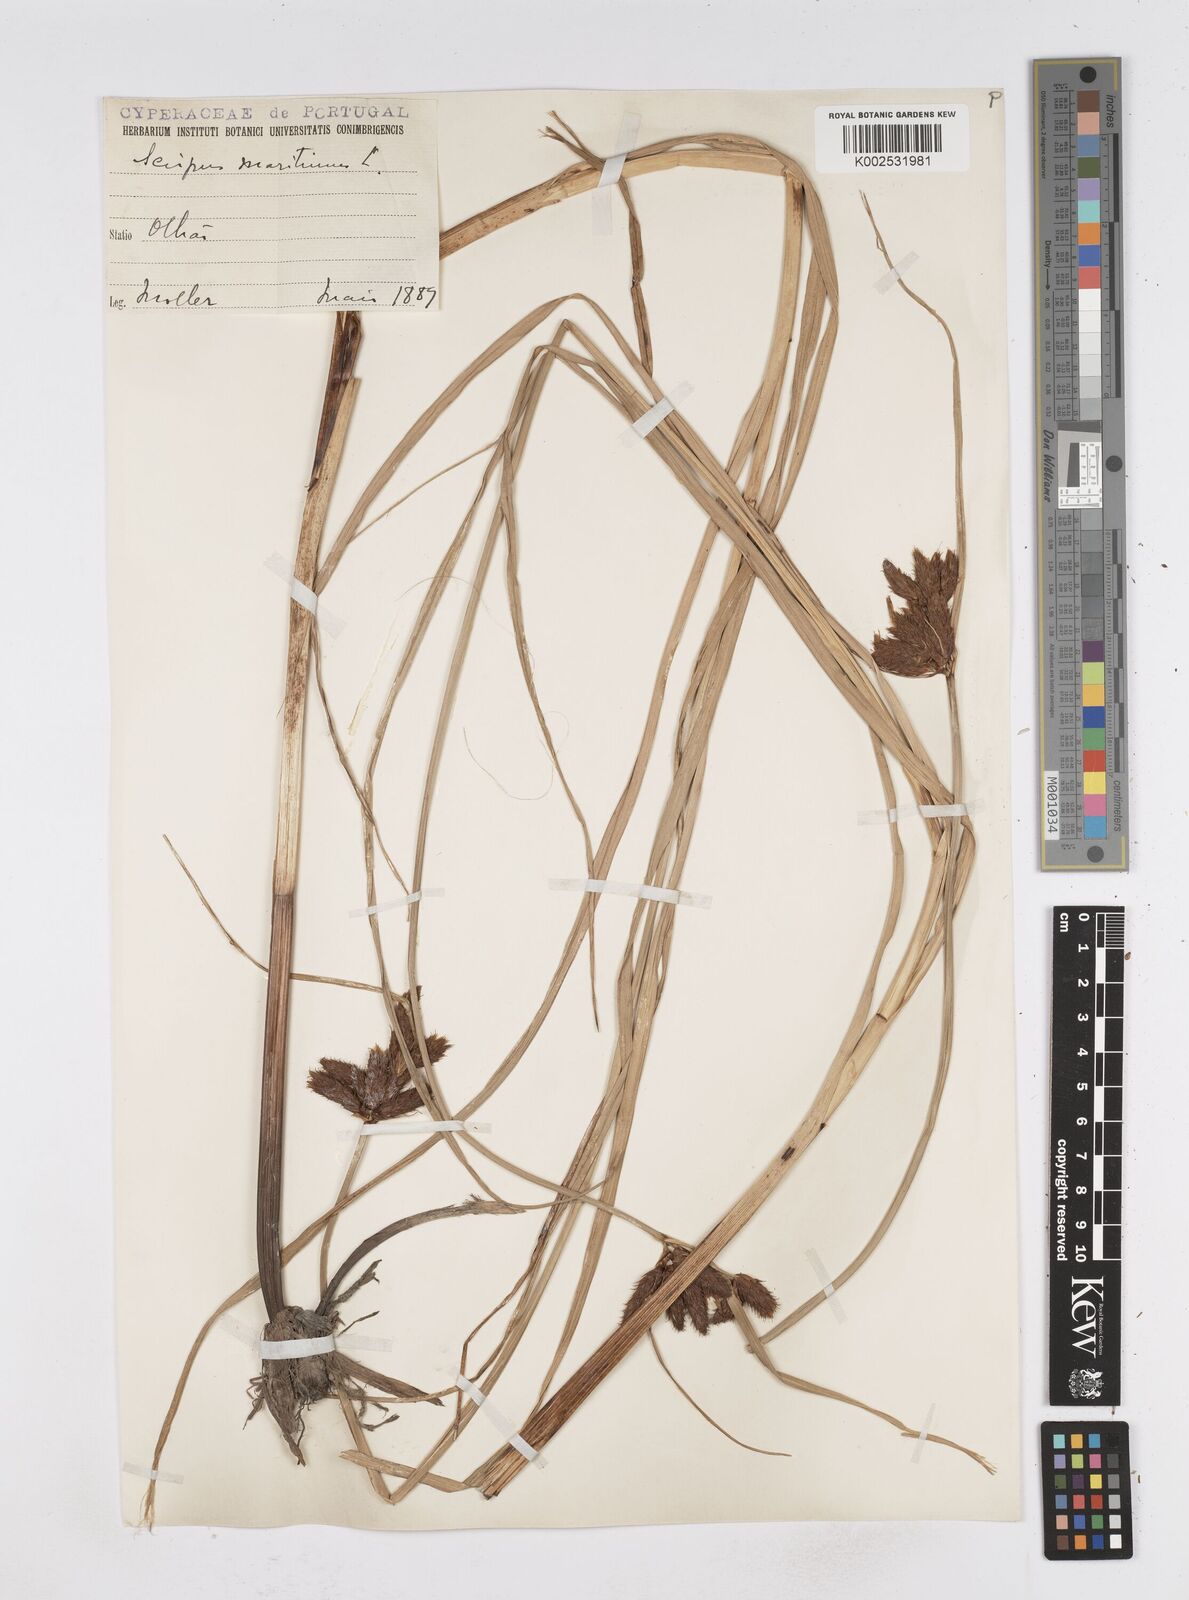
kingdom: Plantae
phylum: Tracheophyta
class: Liliopsida
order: Poales
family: Cyperaceae
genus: Bolboschoenus
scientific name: Bolboschoenus maritimus
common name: Sea club-rush
